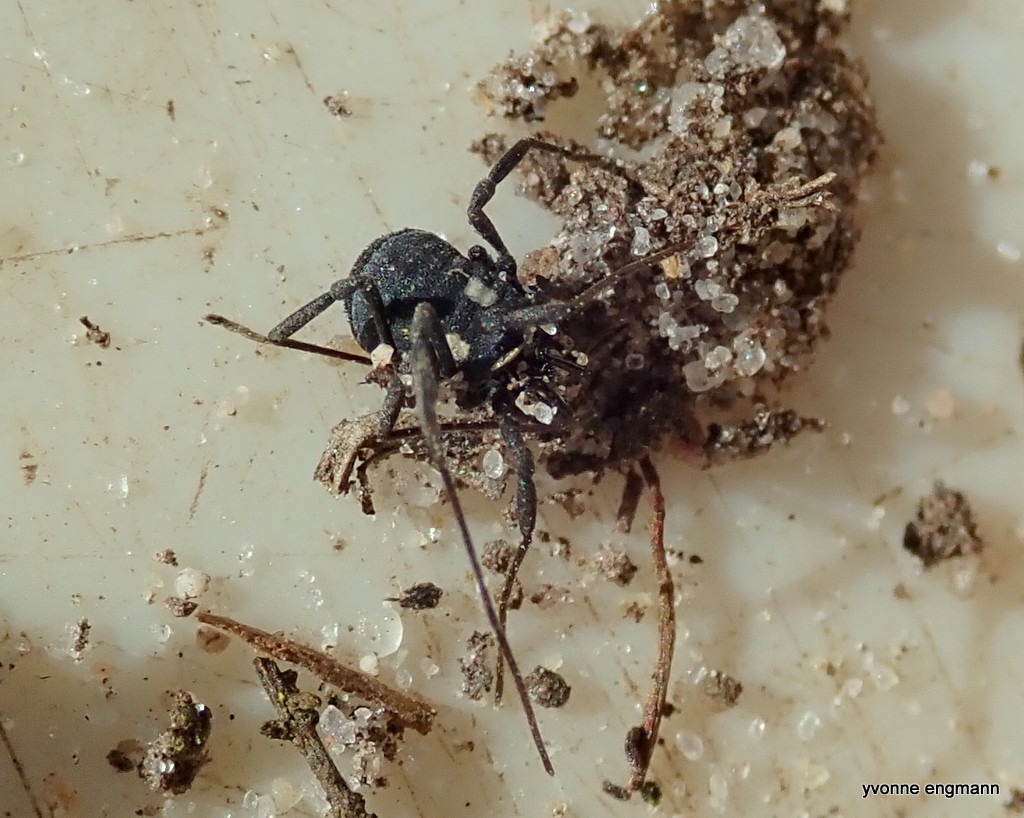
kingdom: Animalia
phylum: Arthropoda
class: Arachnida
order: Opiliones
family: Nemastomatidae
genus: Nemastoma
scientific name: Nemastoma lugubre
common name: Østlig dødningehovedmejer
